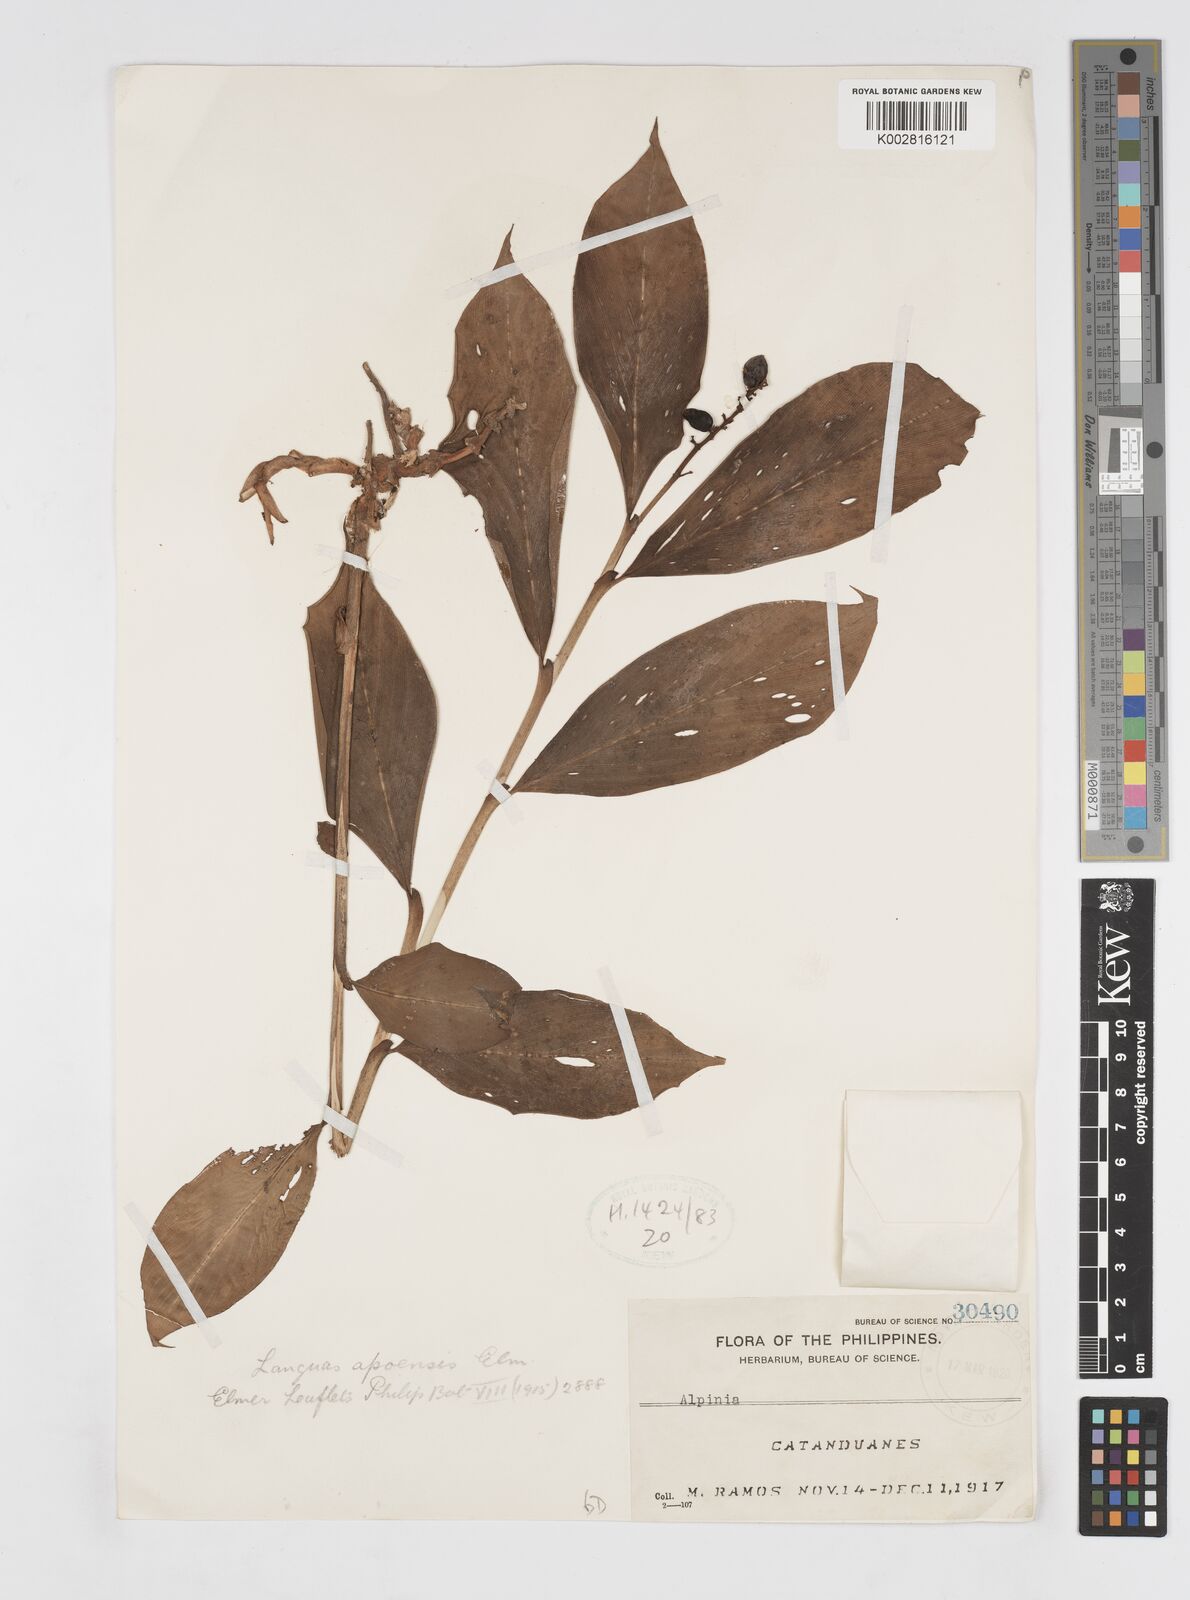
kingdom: Plantae
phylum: Tracheophyta
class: Liliopsida
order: Zingiberales
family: Zingiberaceae
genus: Alpinia
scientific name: Alpinia apoensis
